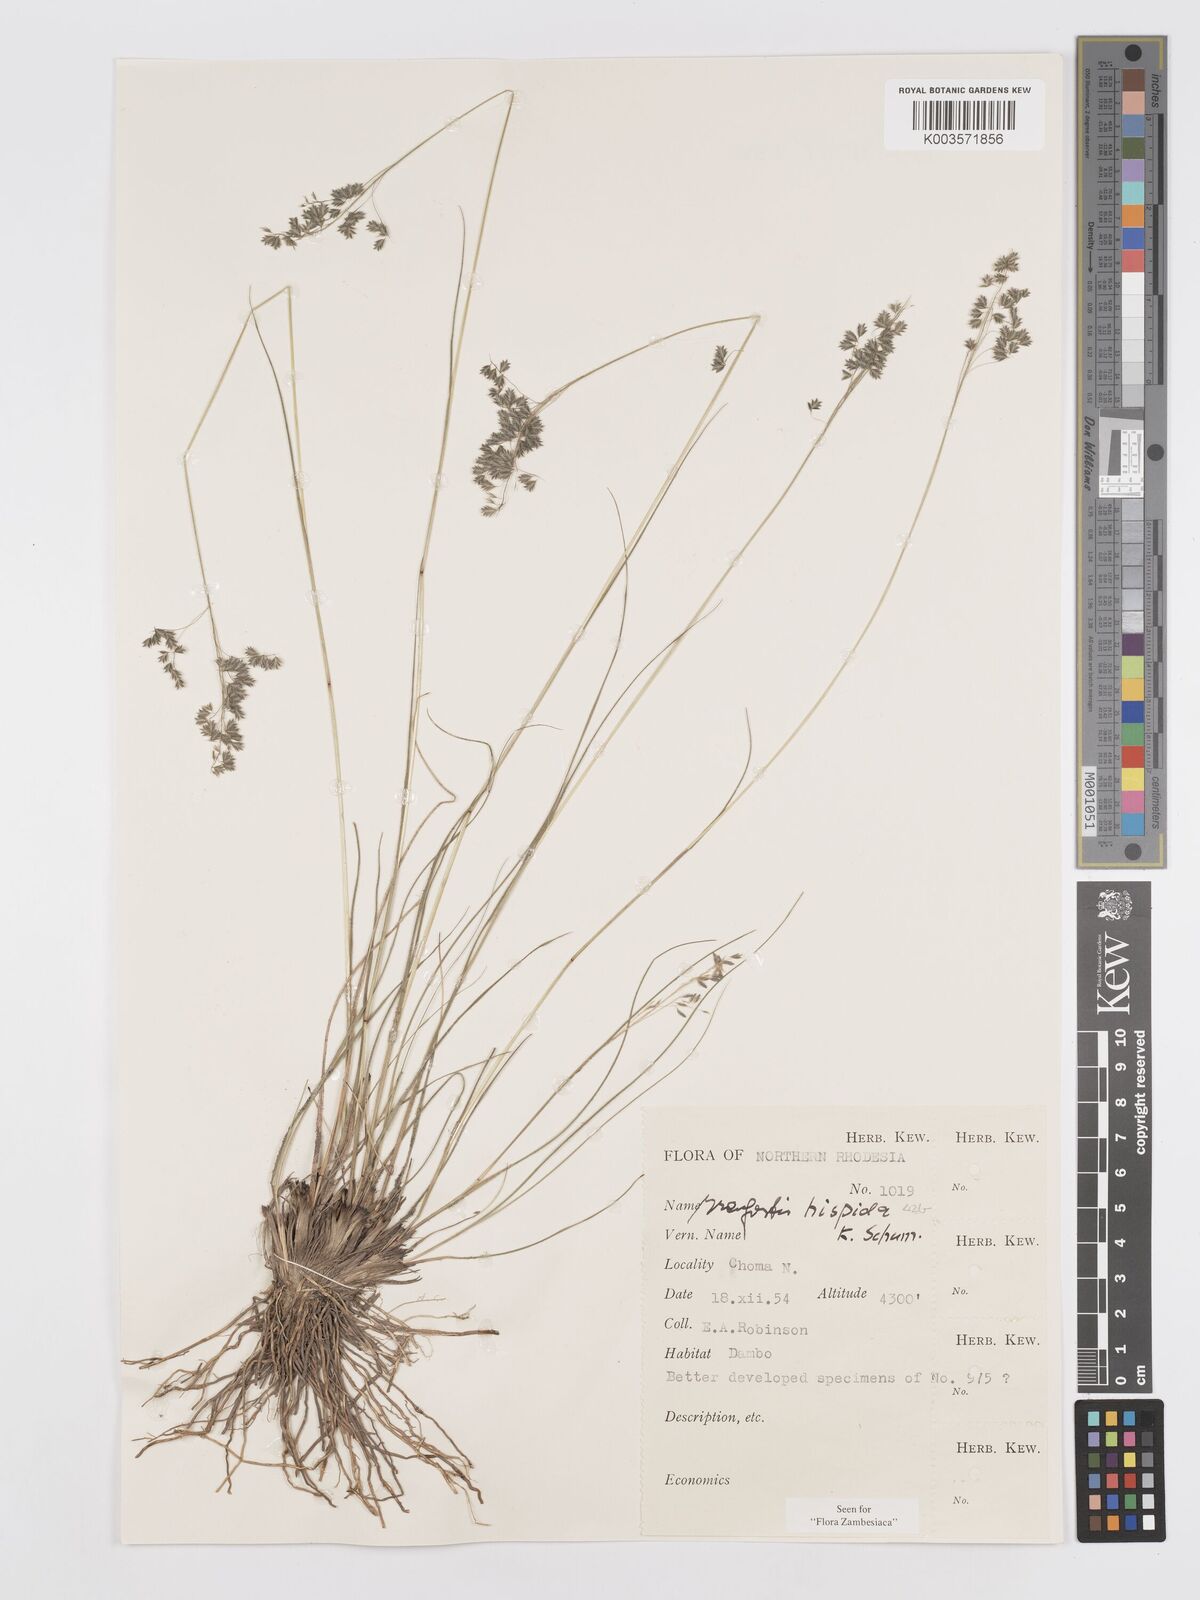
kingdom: Plantae
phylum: Tracheophyta
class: Liliopsida
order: Poales
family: Poaceae
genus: Eragrostis
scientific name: Eragrostis hispida
